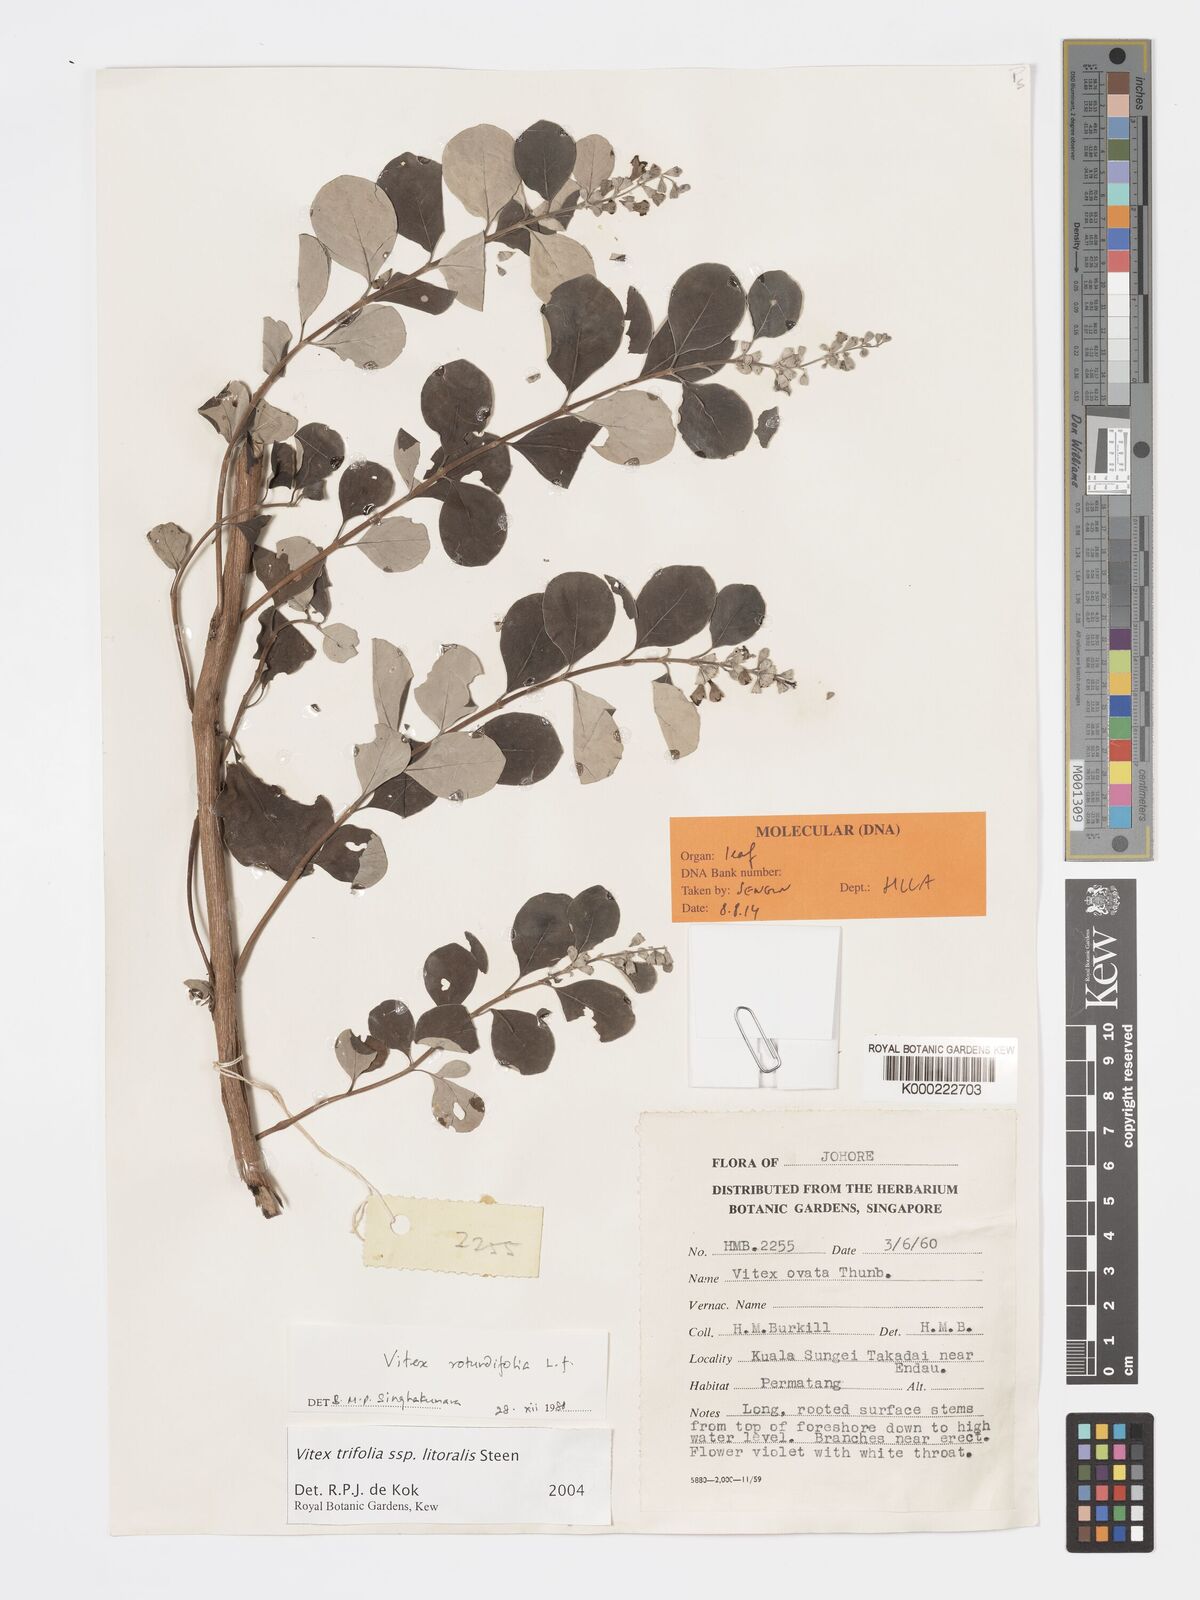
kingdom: Plantae
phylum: Tracheophyta
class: Magnoliopsida
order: Lamiales
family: Lamiaceae
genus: Vitex
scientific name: Vitex rotundifolia
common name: Beach vitex
